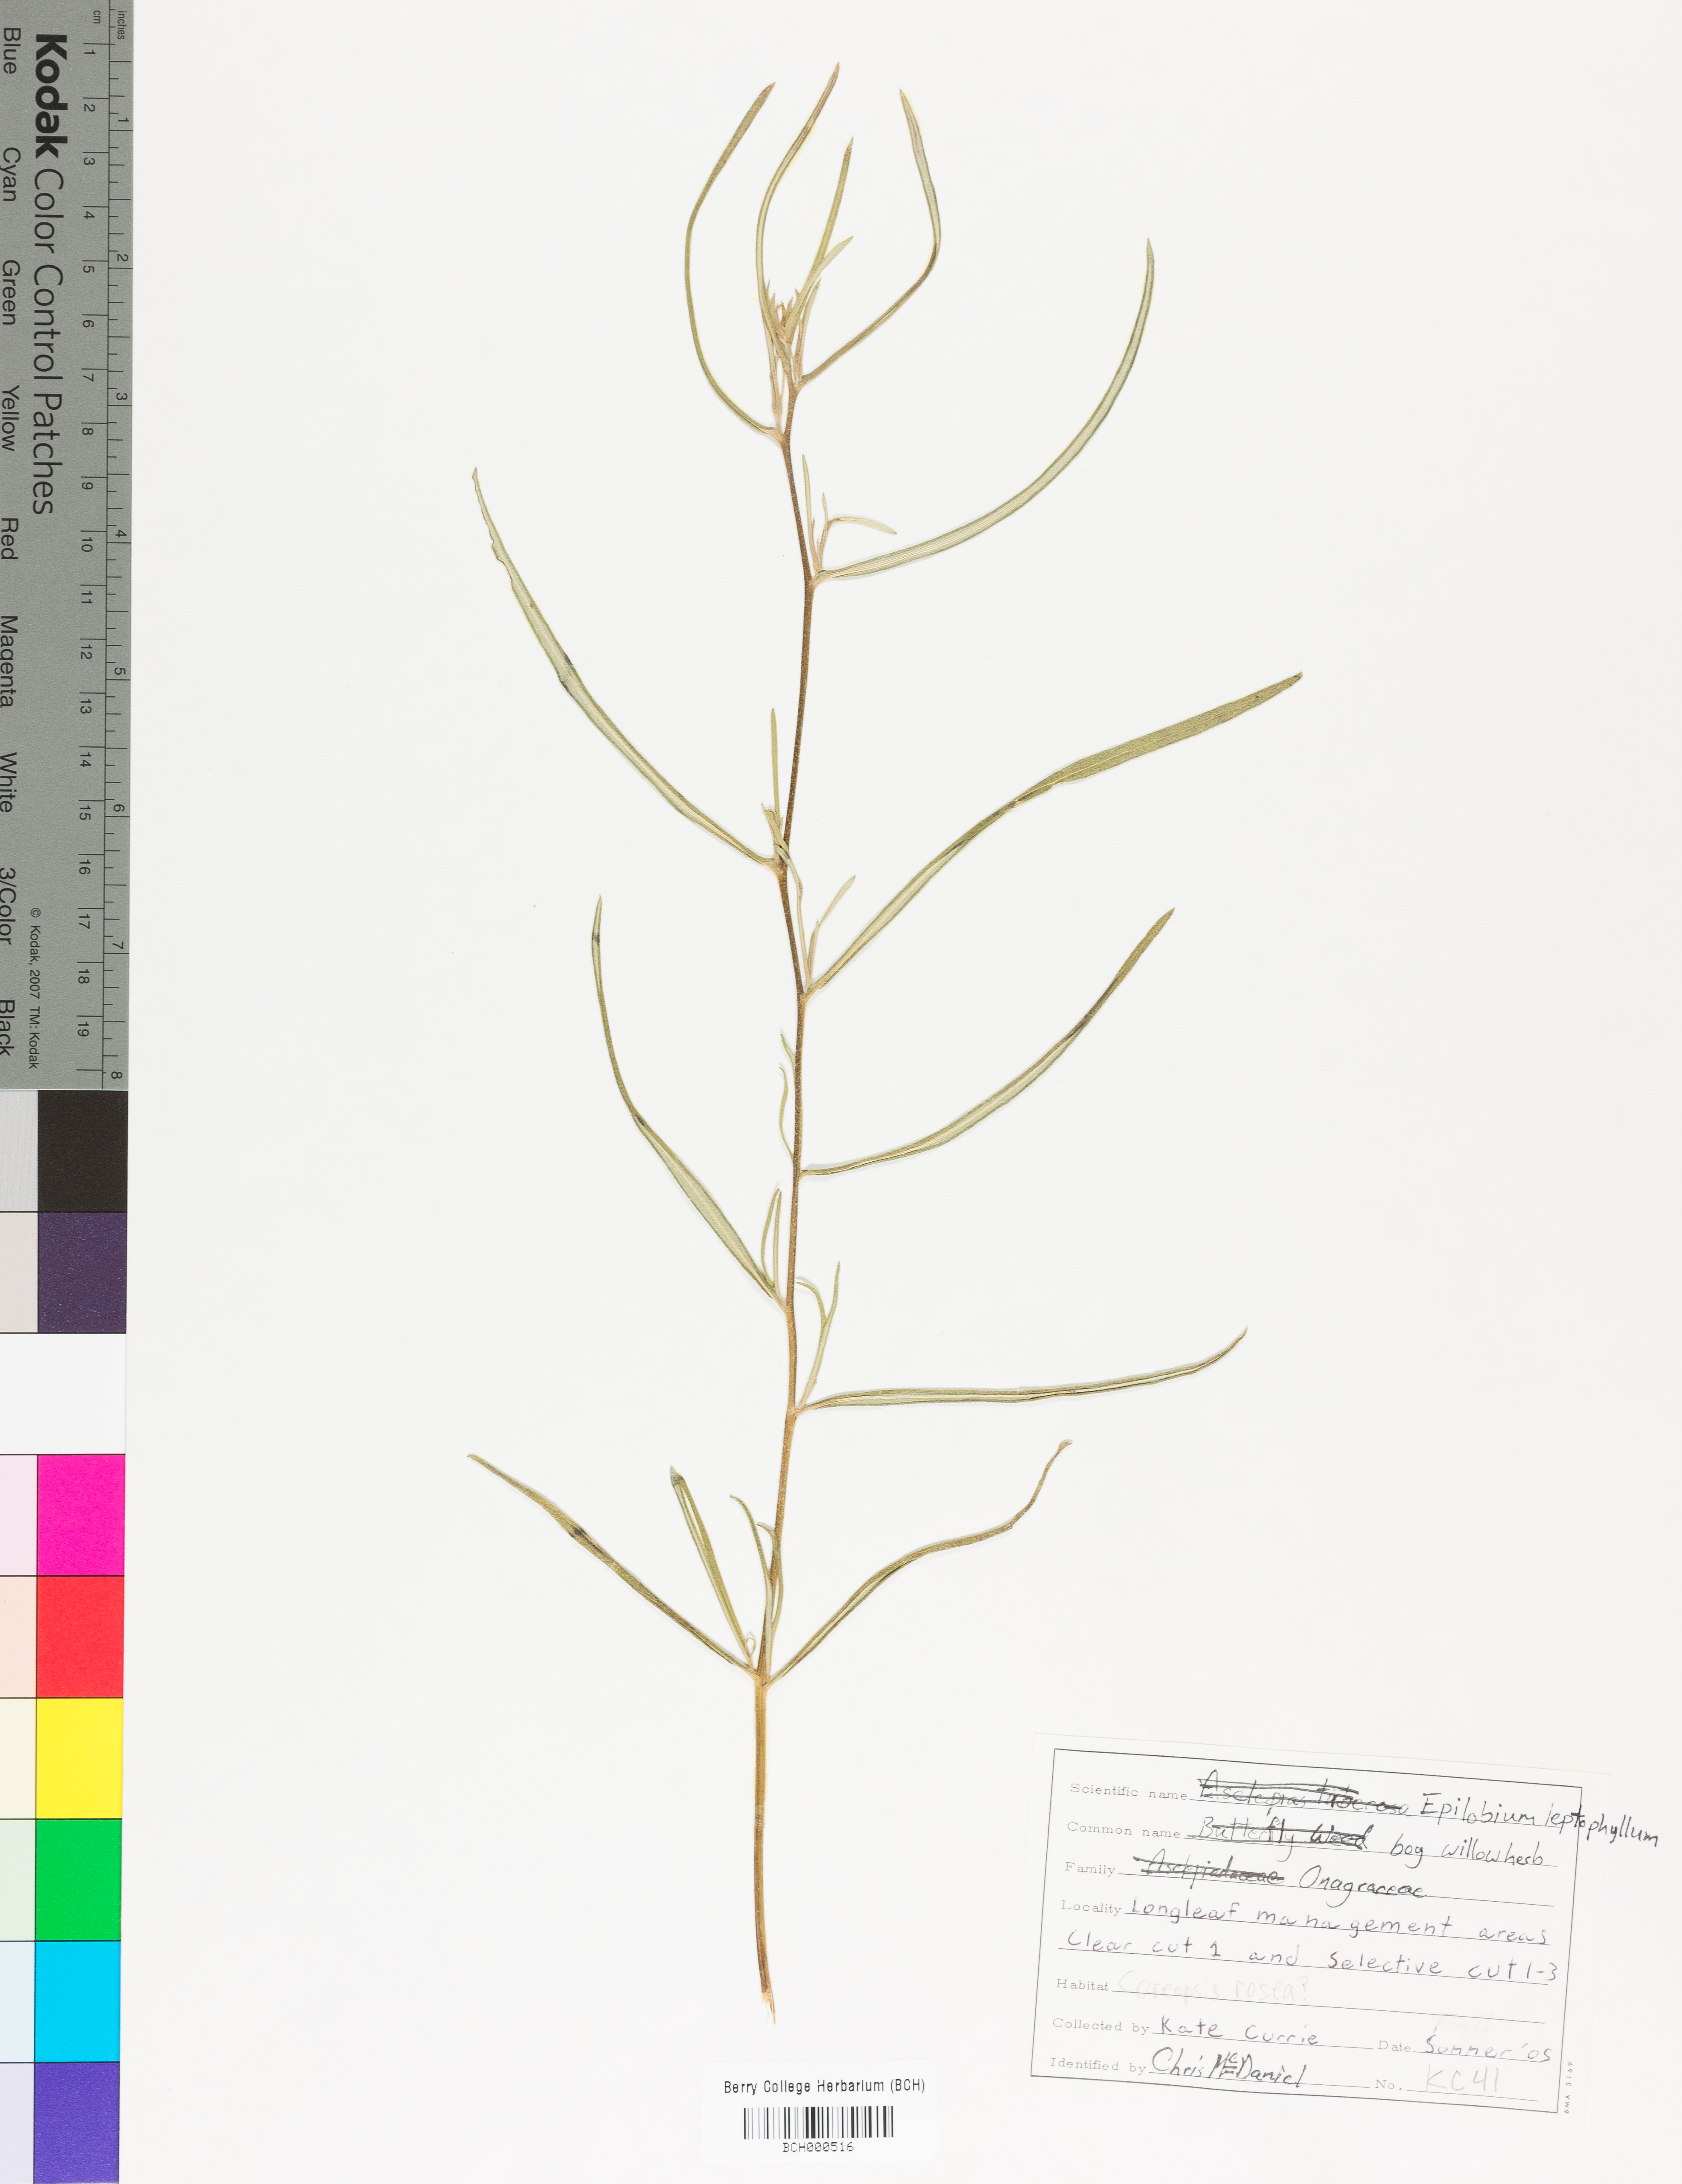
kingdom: Plantae
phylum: Tracheophyta
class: Magnoliopsida
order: Myrtales
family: Onagraceae
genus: Epilobium
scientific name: Epilobium leptophyllum
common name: Bog willowherb
